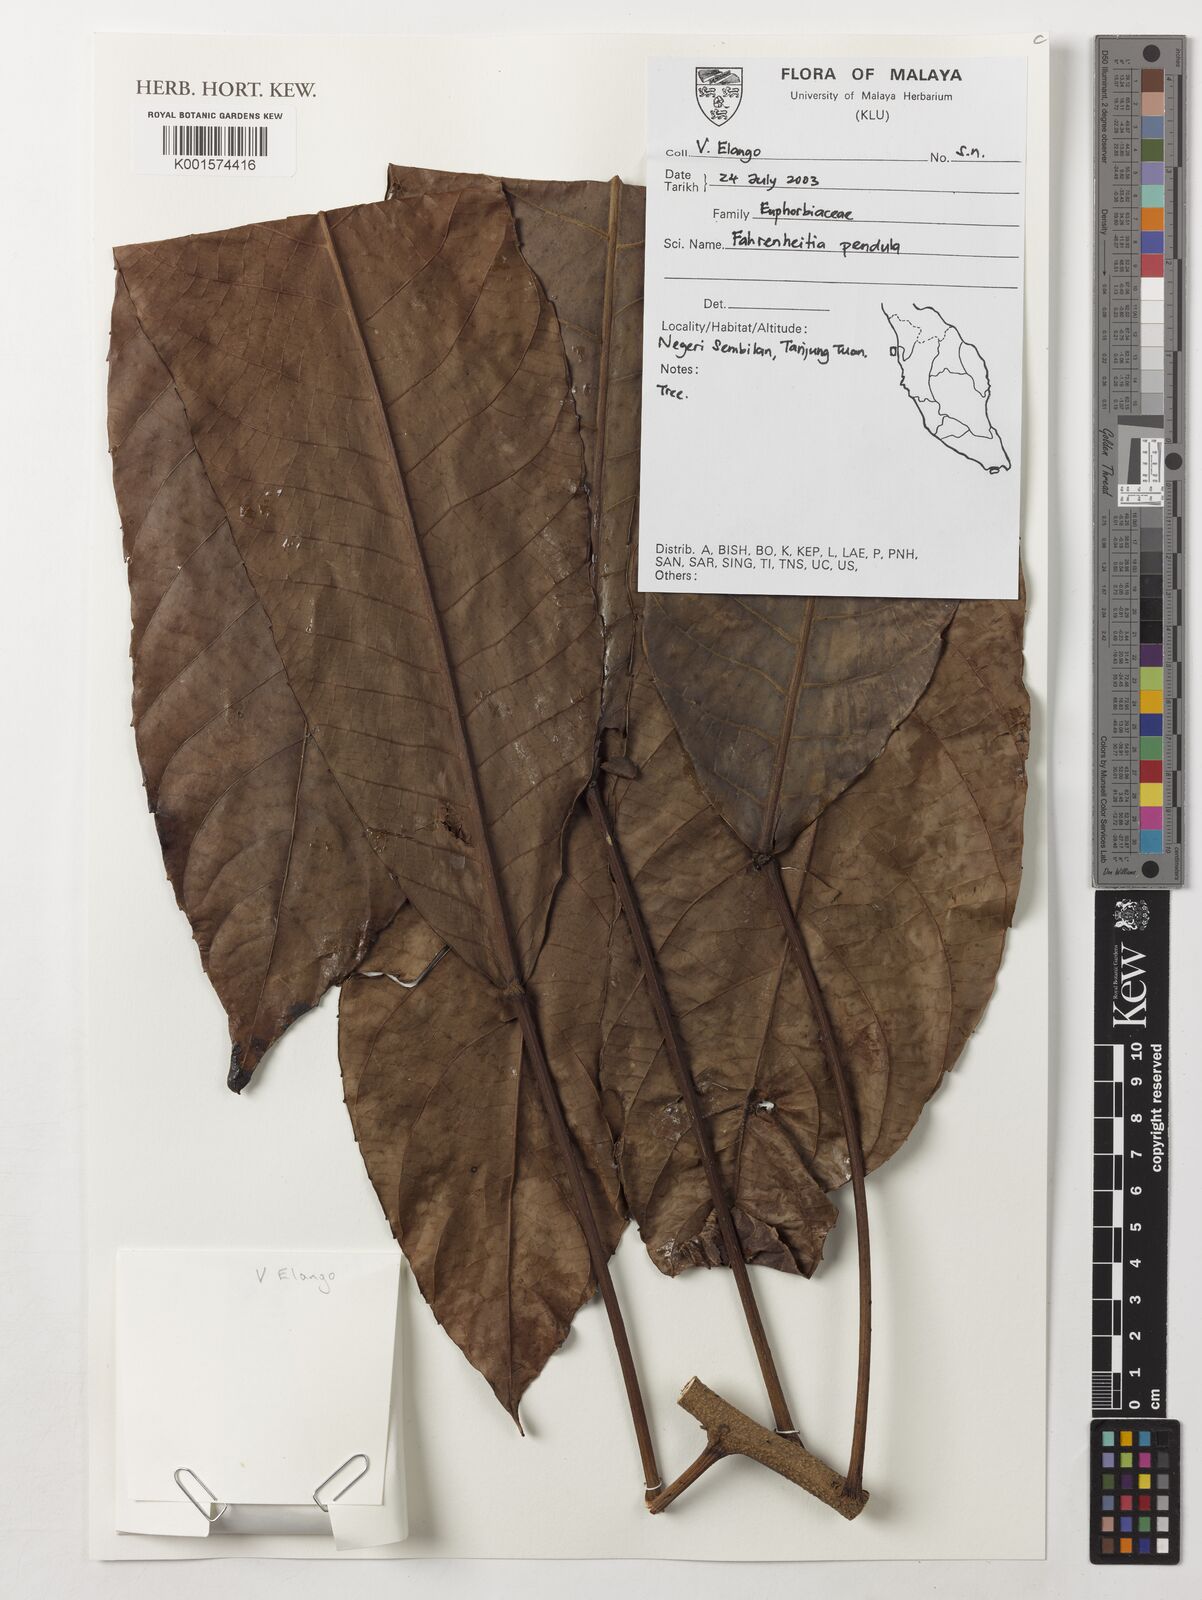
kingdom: Plantae
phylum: Tracheophyta
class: Magnoliopsida
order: Malpighiales
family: Euphorbiaceae
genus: Paracroton
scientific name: Paracroton pendulus
